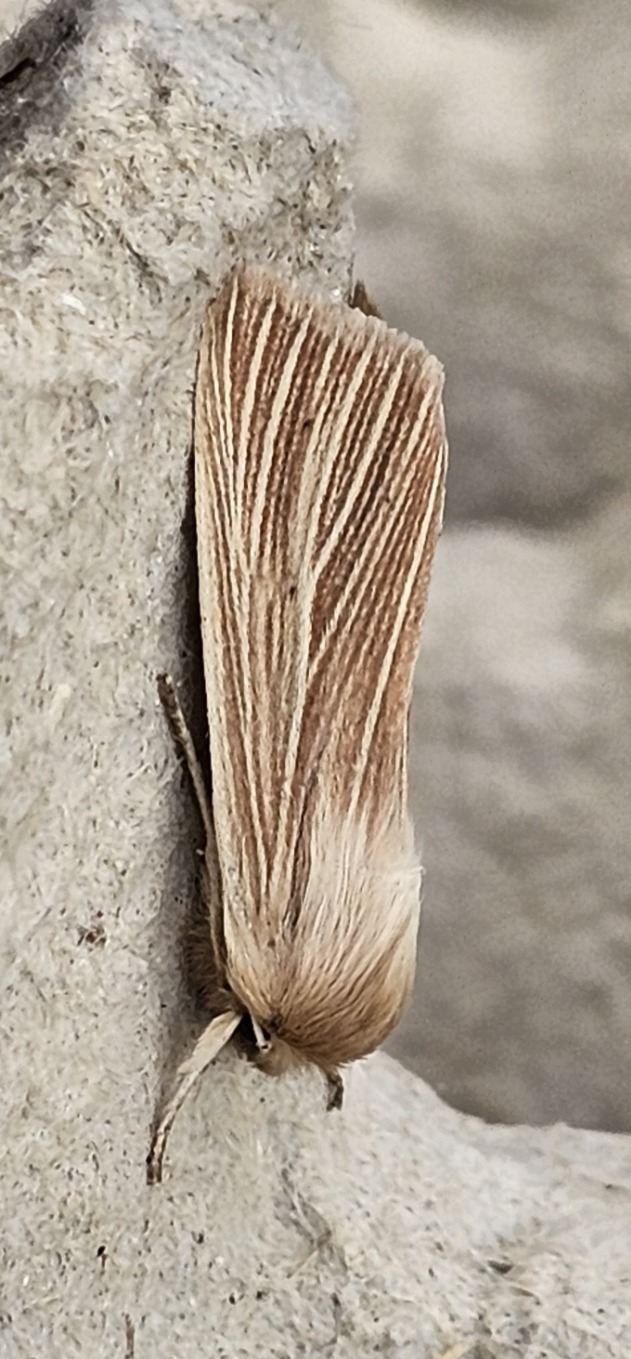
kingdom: Animalia
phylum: Arthropoda
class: Insecta
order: Lepidoptera
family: Noctuidae
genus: Mythimna
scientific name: Mythimna pallens
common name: Halmugle
